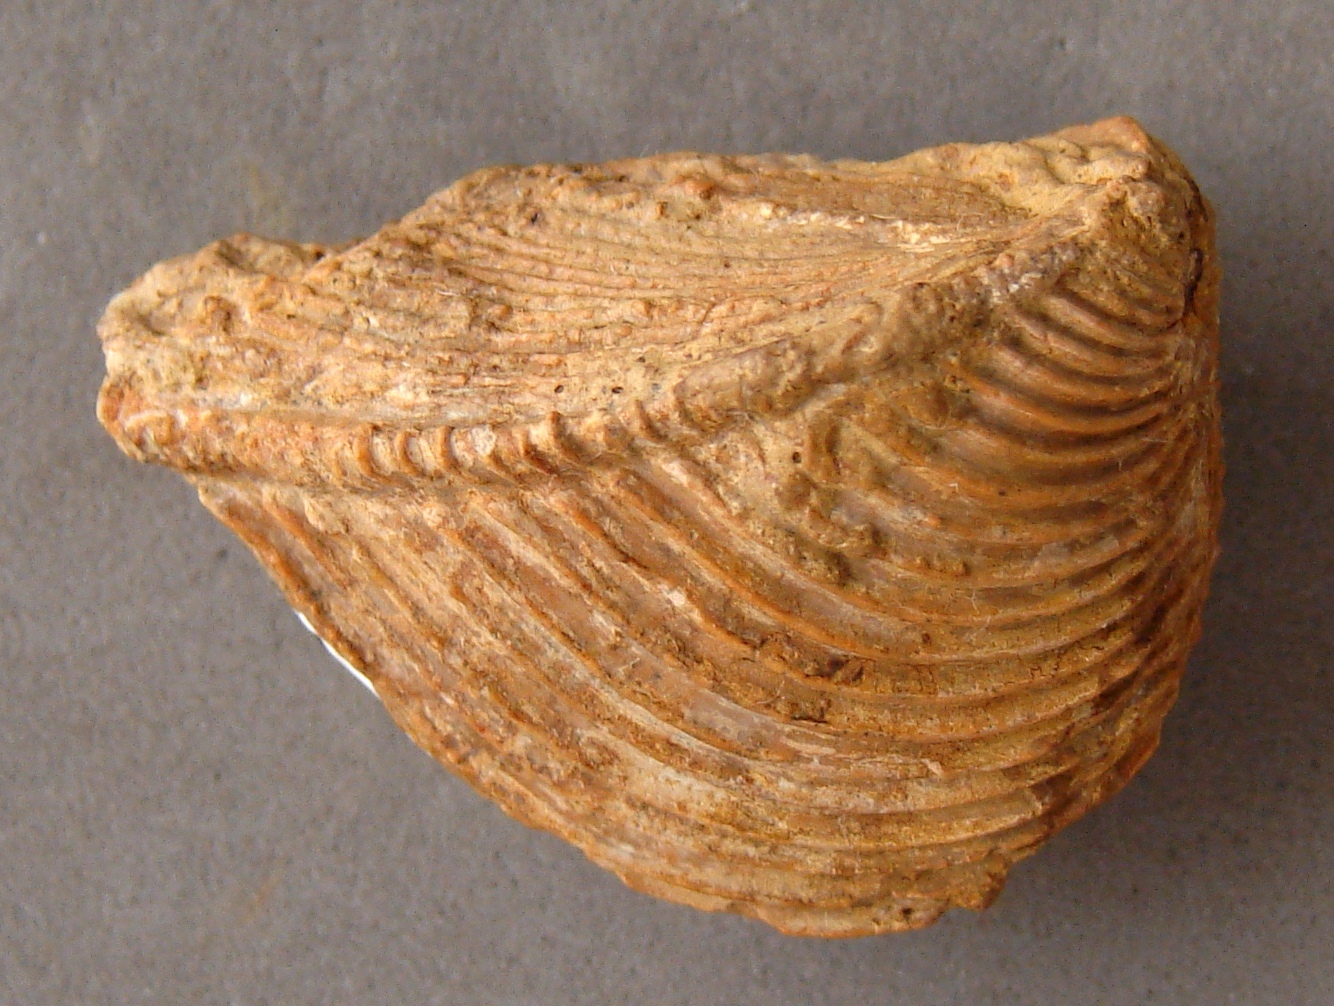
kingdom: Animalia
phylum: Mollusca
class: Bivalvia
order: Trigoniida
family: Trigoniidae
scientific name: Trigoniidae
